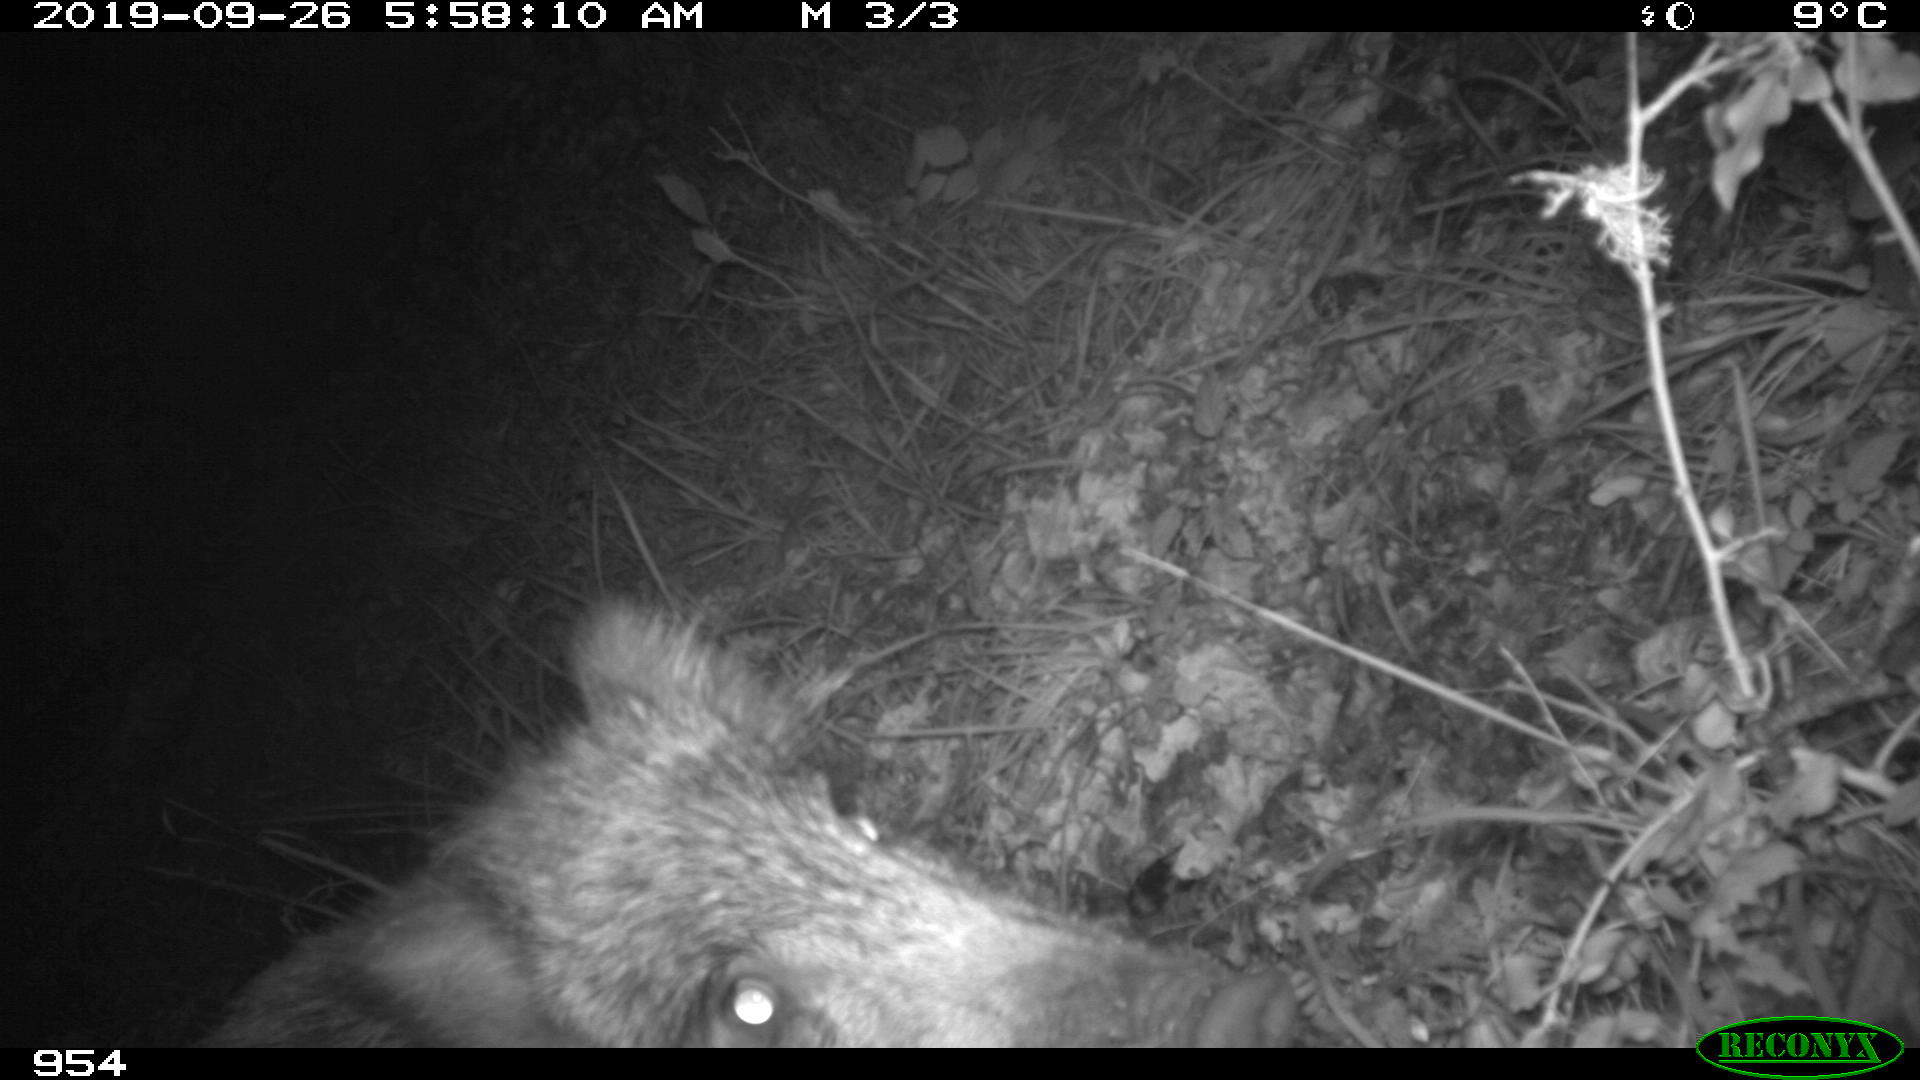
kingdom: Animalia
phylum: Chordata
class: Mammalia
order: Artiodactyla
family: Suidae
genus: Sus
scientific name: Sus scrofa
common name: Wild boar
